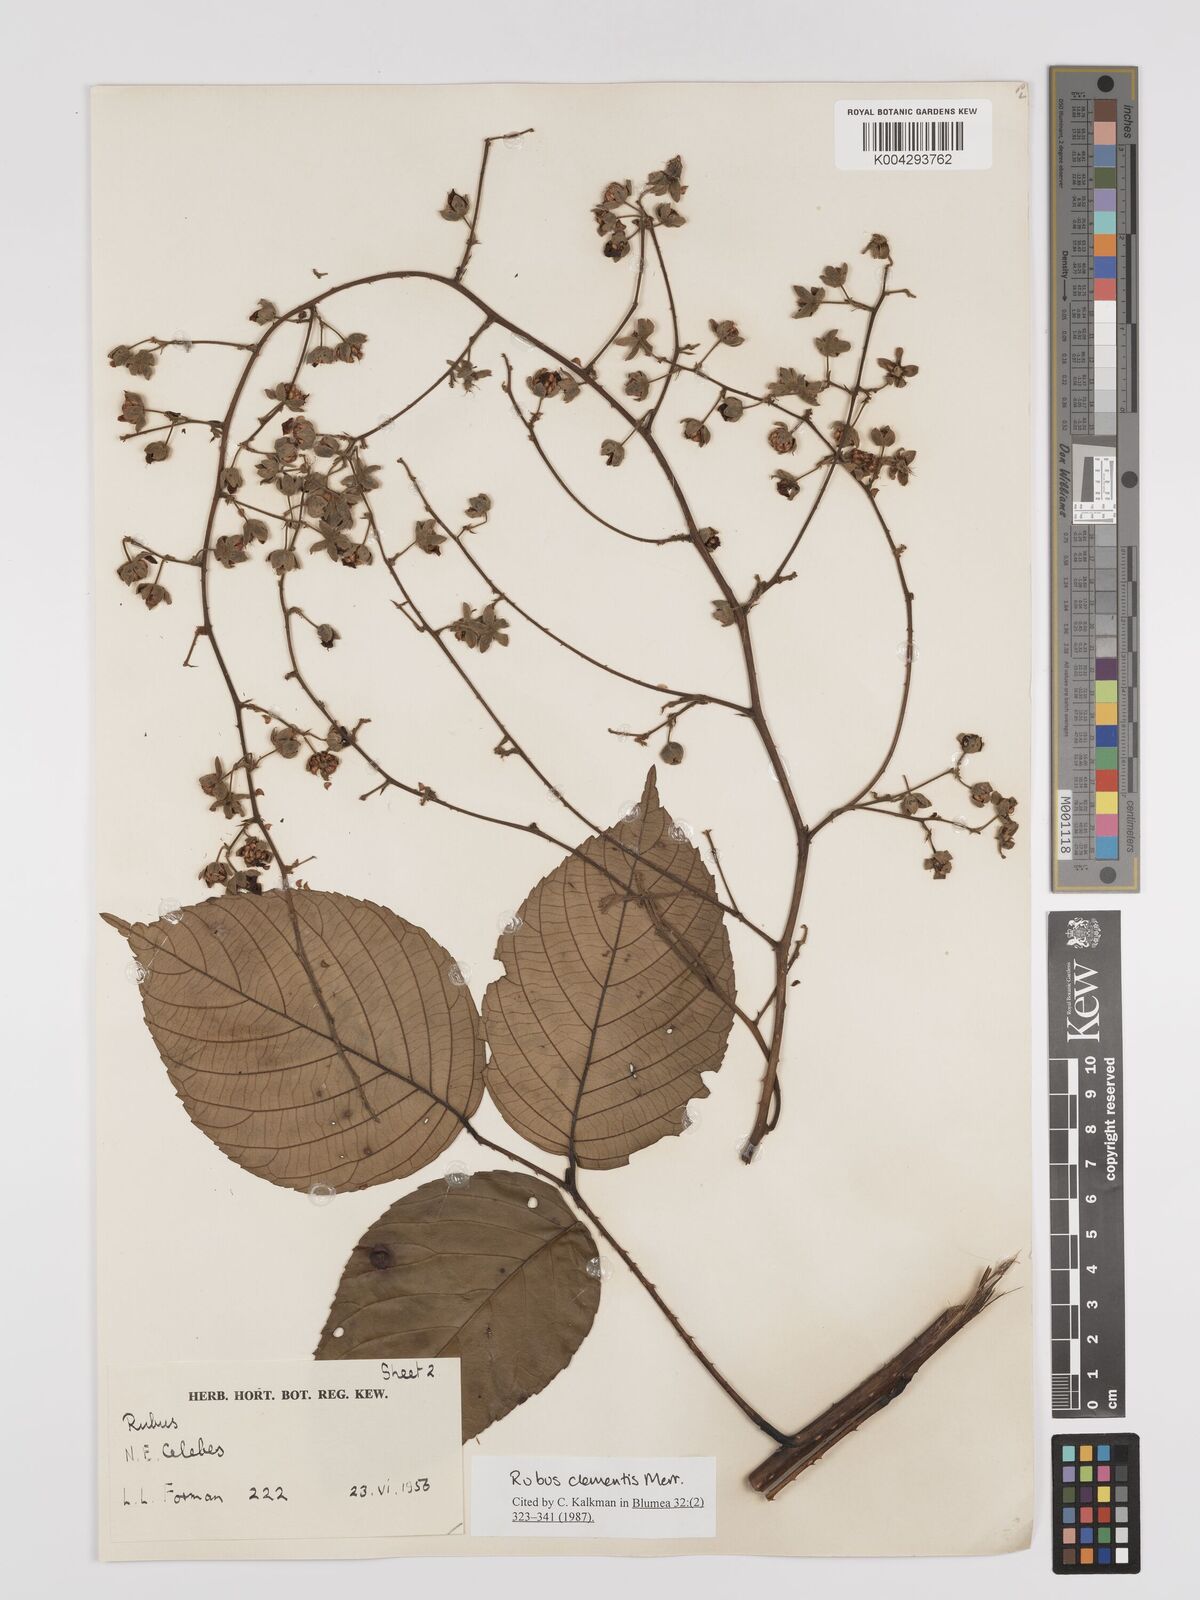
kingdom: Plantae
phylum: Tracheophyta
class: Magnoliopsida
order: Rosales
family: Rosaceae
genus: Rubus
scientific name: Rubus clementis
